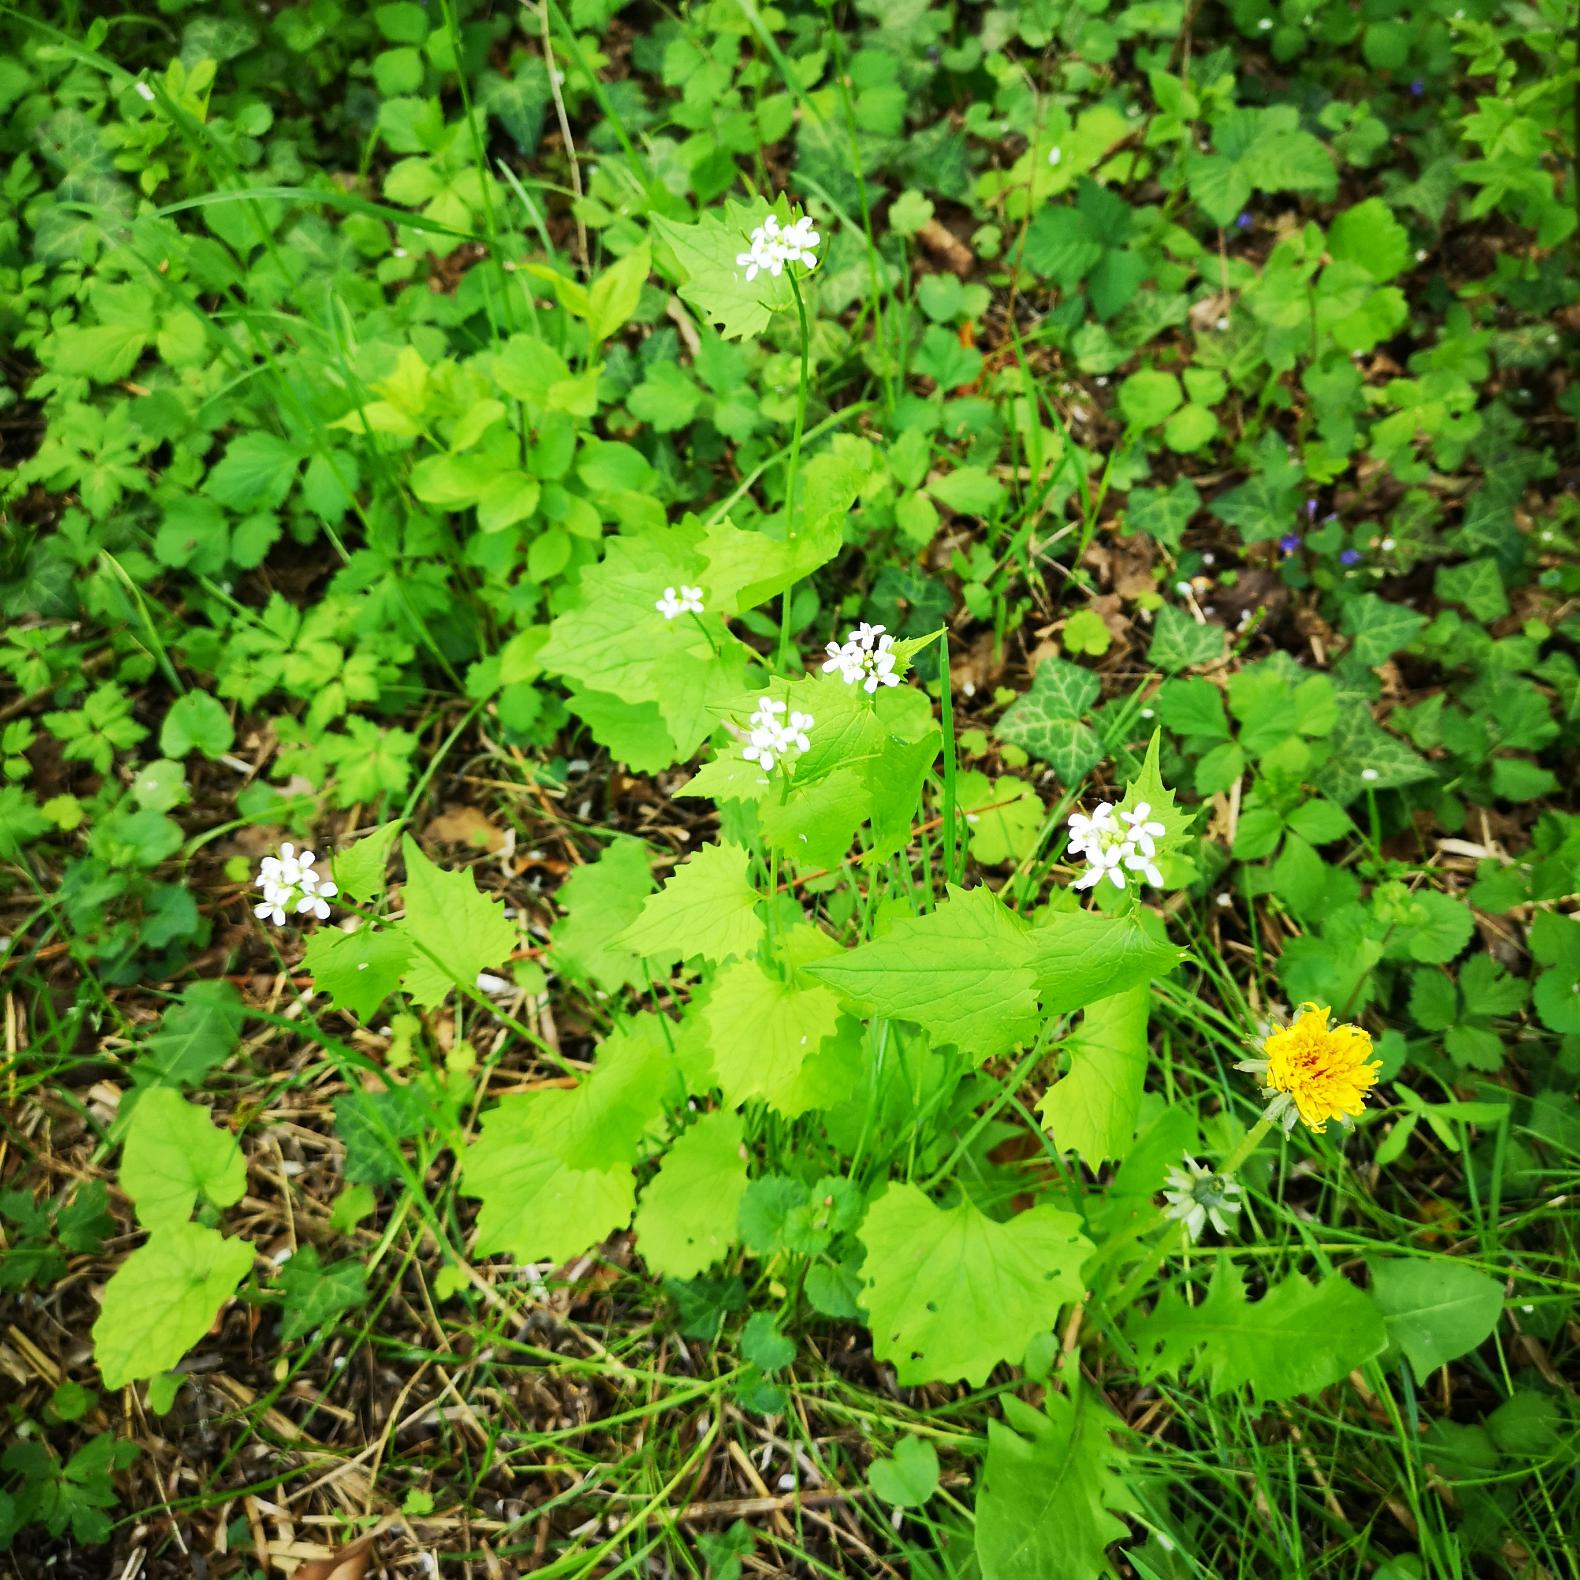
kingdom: Plantae
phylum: Tracheophyta
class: Magnoliopsida
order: Brassicales
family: Brassicaceae
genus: Alliaria
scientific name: Alliaria petiolata
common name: Løgkarse
